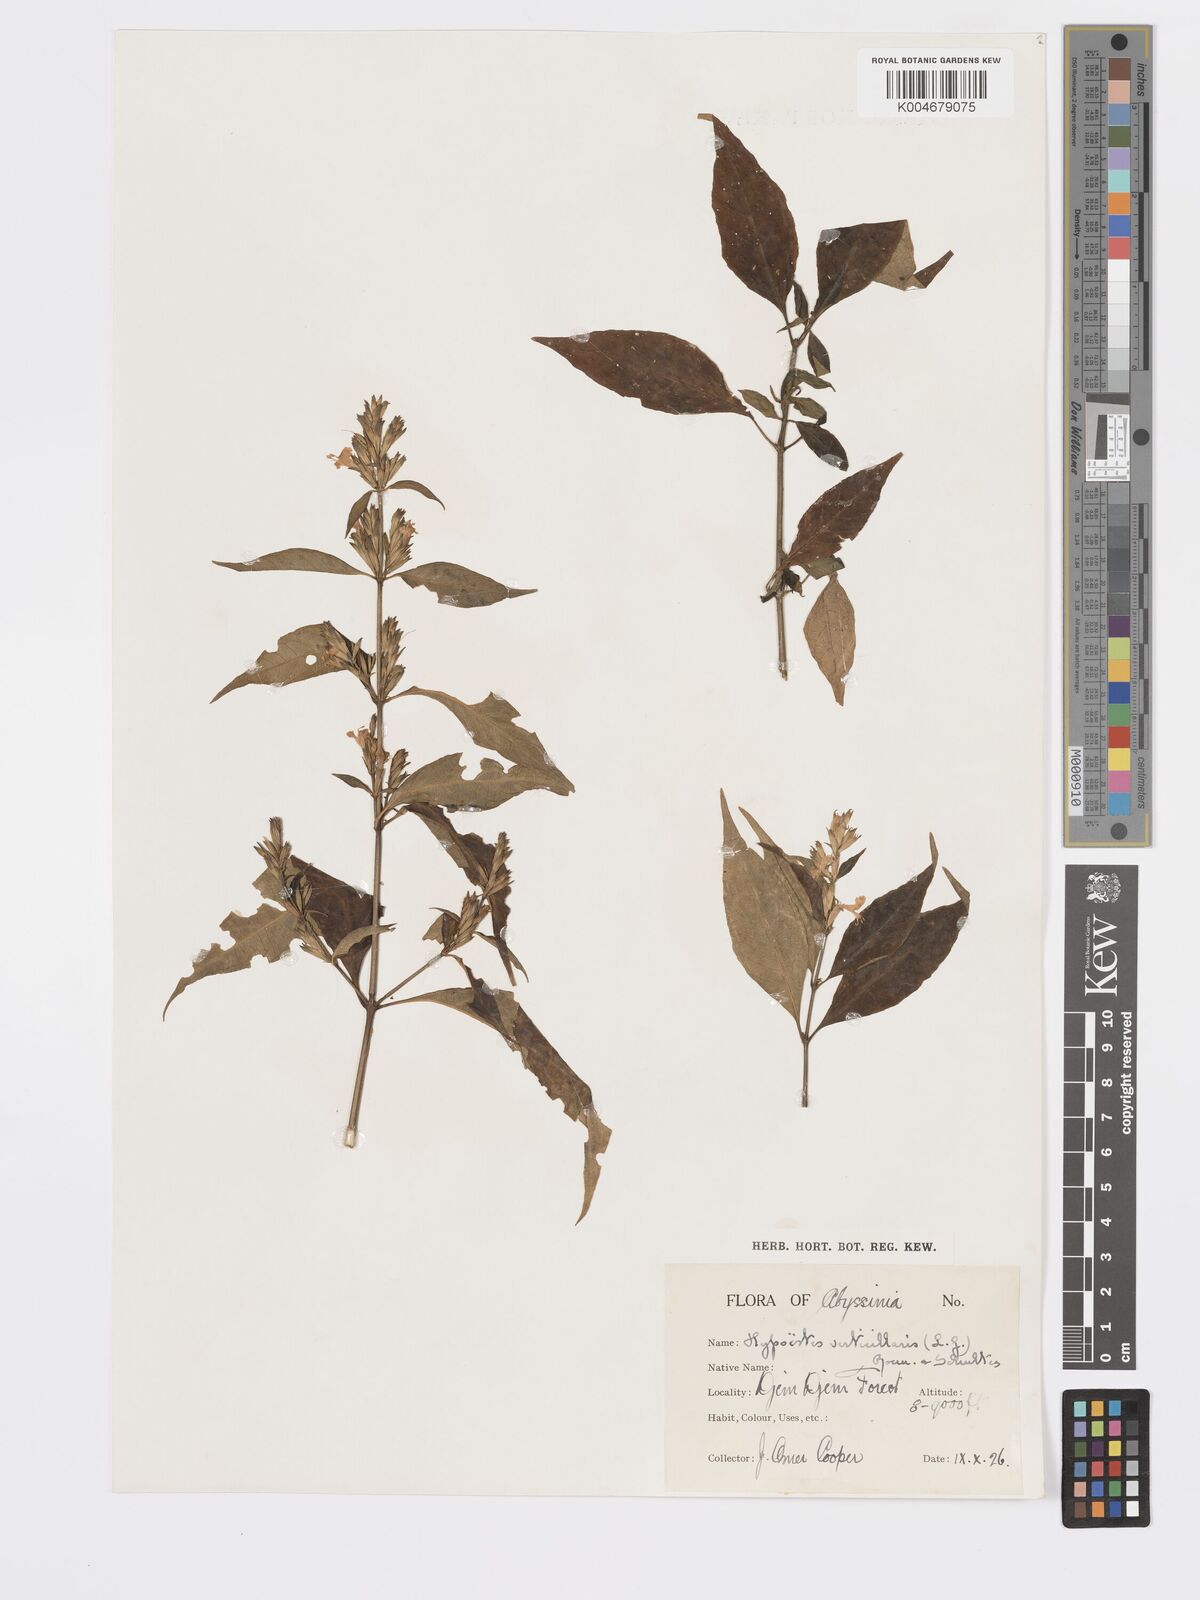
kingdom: Plantae
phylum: Tracheophyta
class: Magnoliopsida
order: Lamiales
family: Acanthaceae
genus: Hypoestes
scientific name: Hypoestes forskaolii
